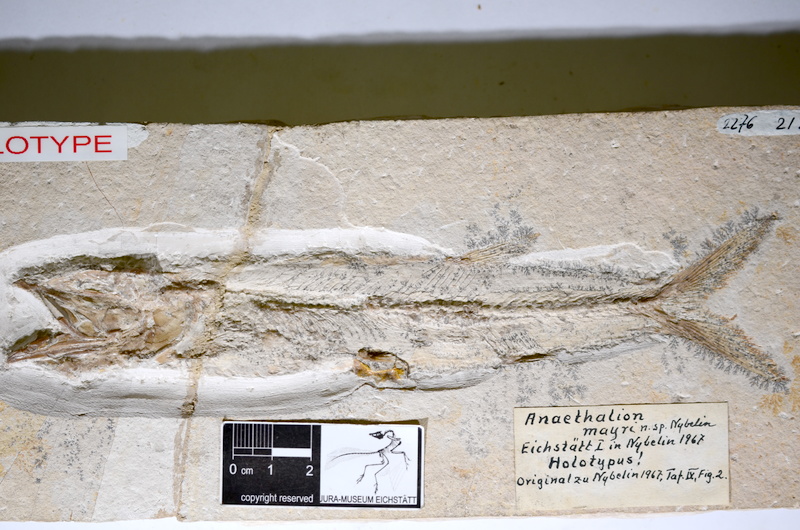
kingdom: Animalia
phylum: Chordata
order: Elopiformes
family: Anaethalionidae
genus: Eichstaettia
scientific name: Eichstaettia mayri
